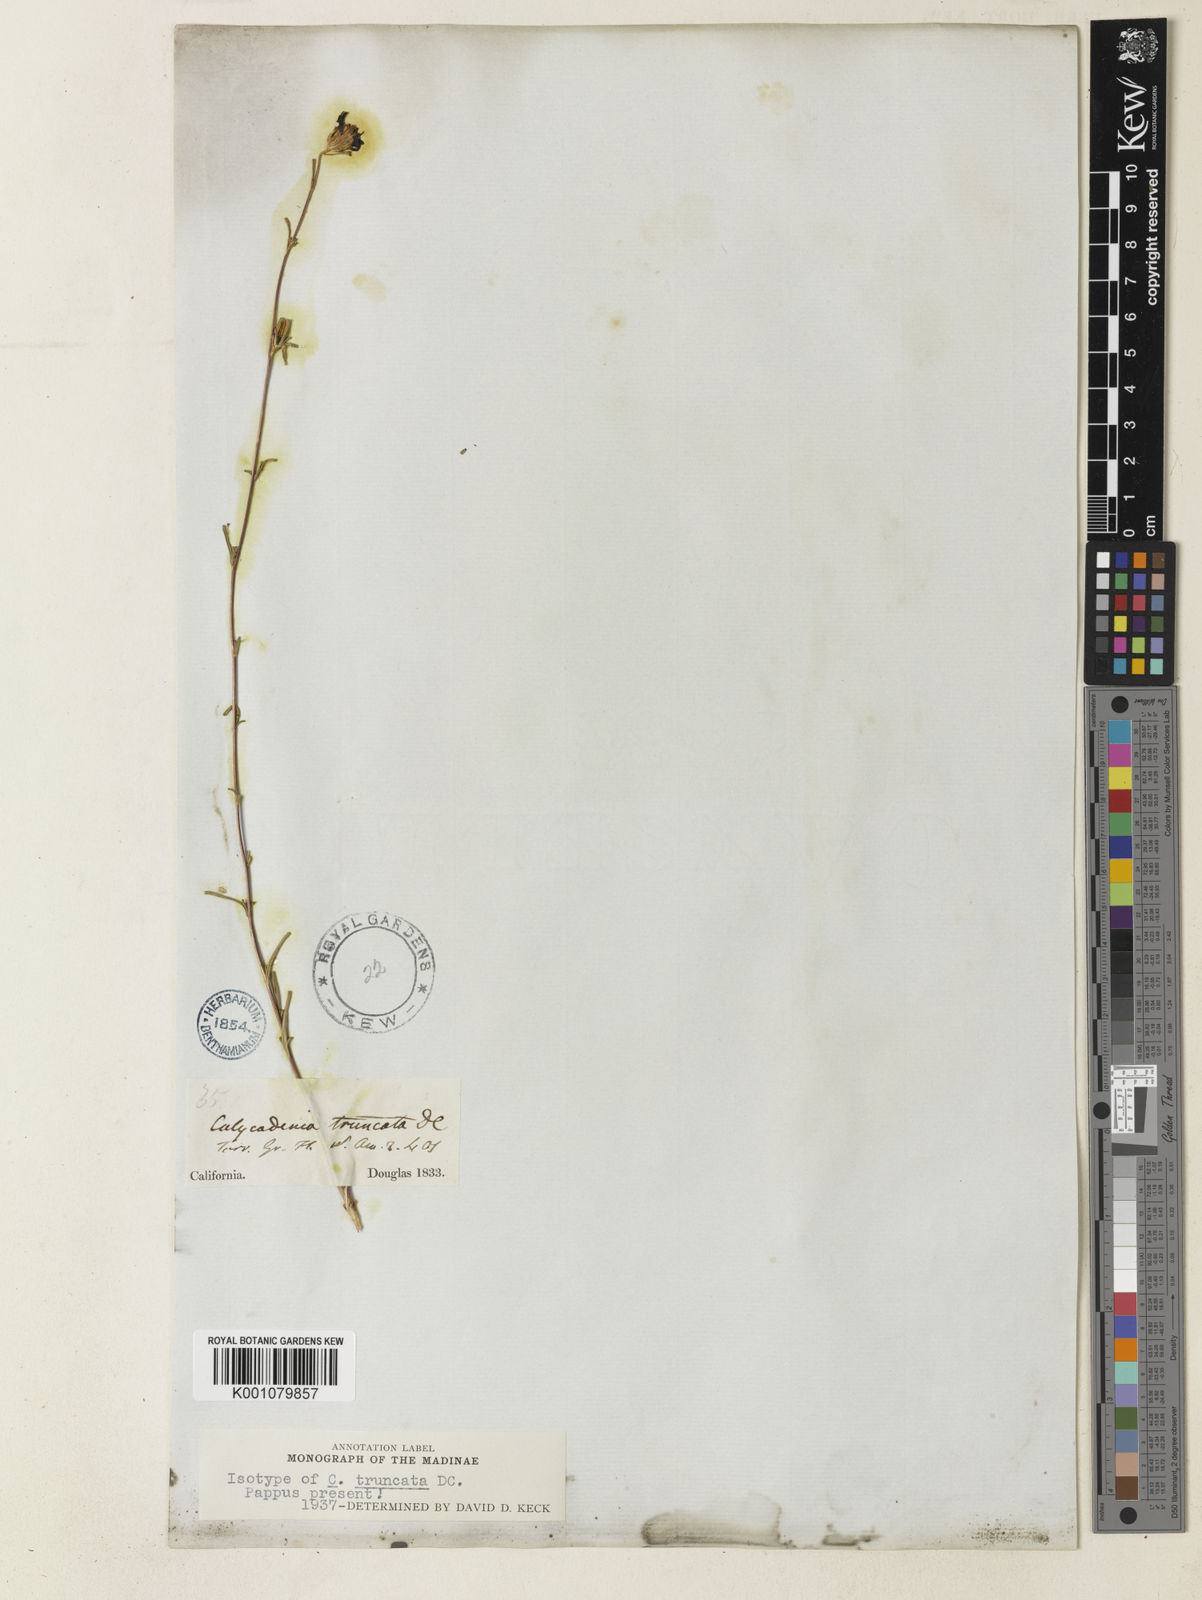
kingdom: Plantae
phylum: Tracheophyta
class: Magnoliopsida
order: Asterales
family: Asteraceae
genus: Calycadenia
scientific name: Calycadenia truncata
